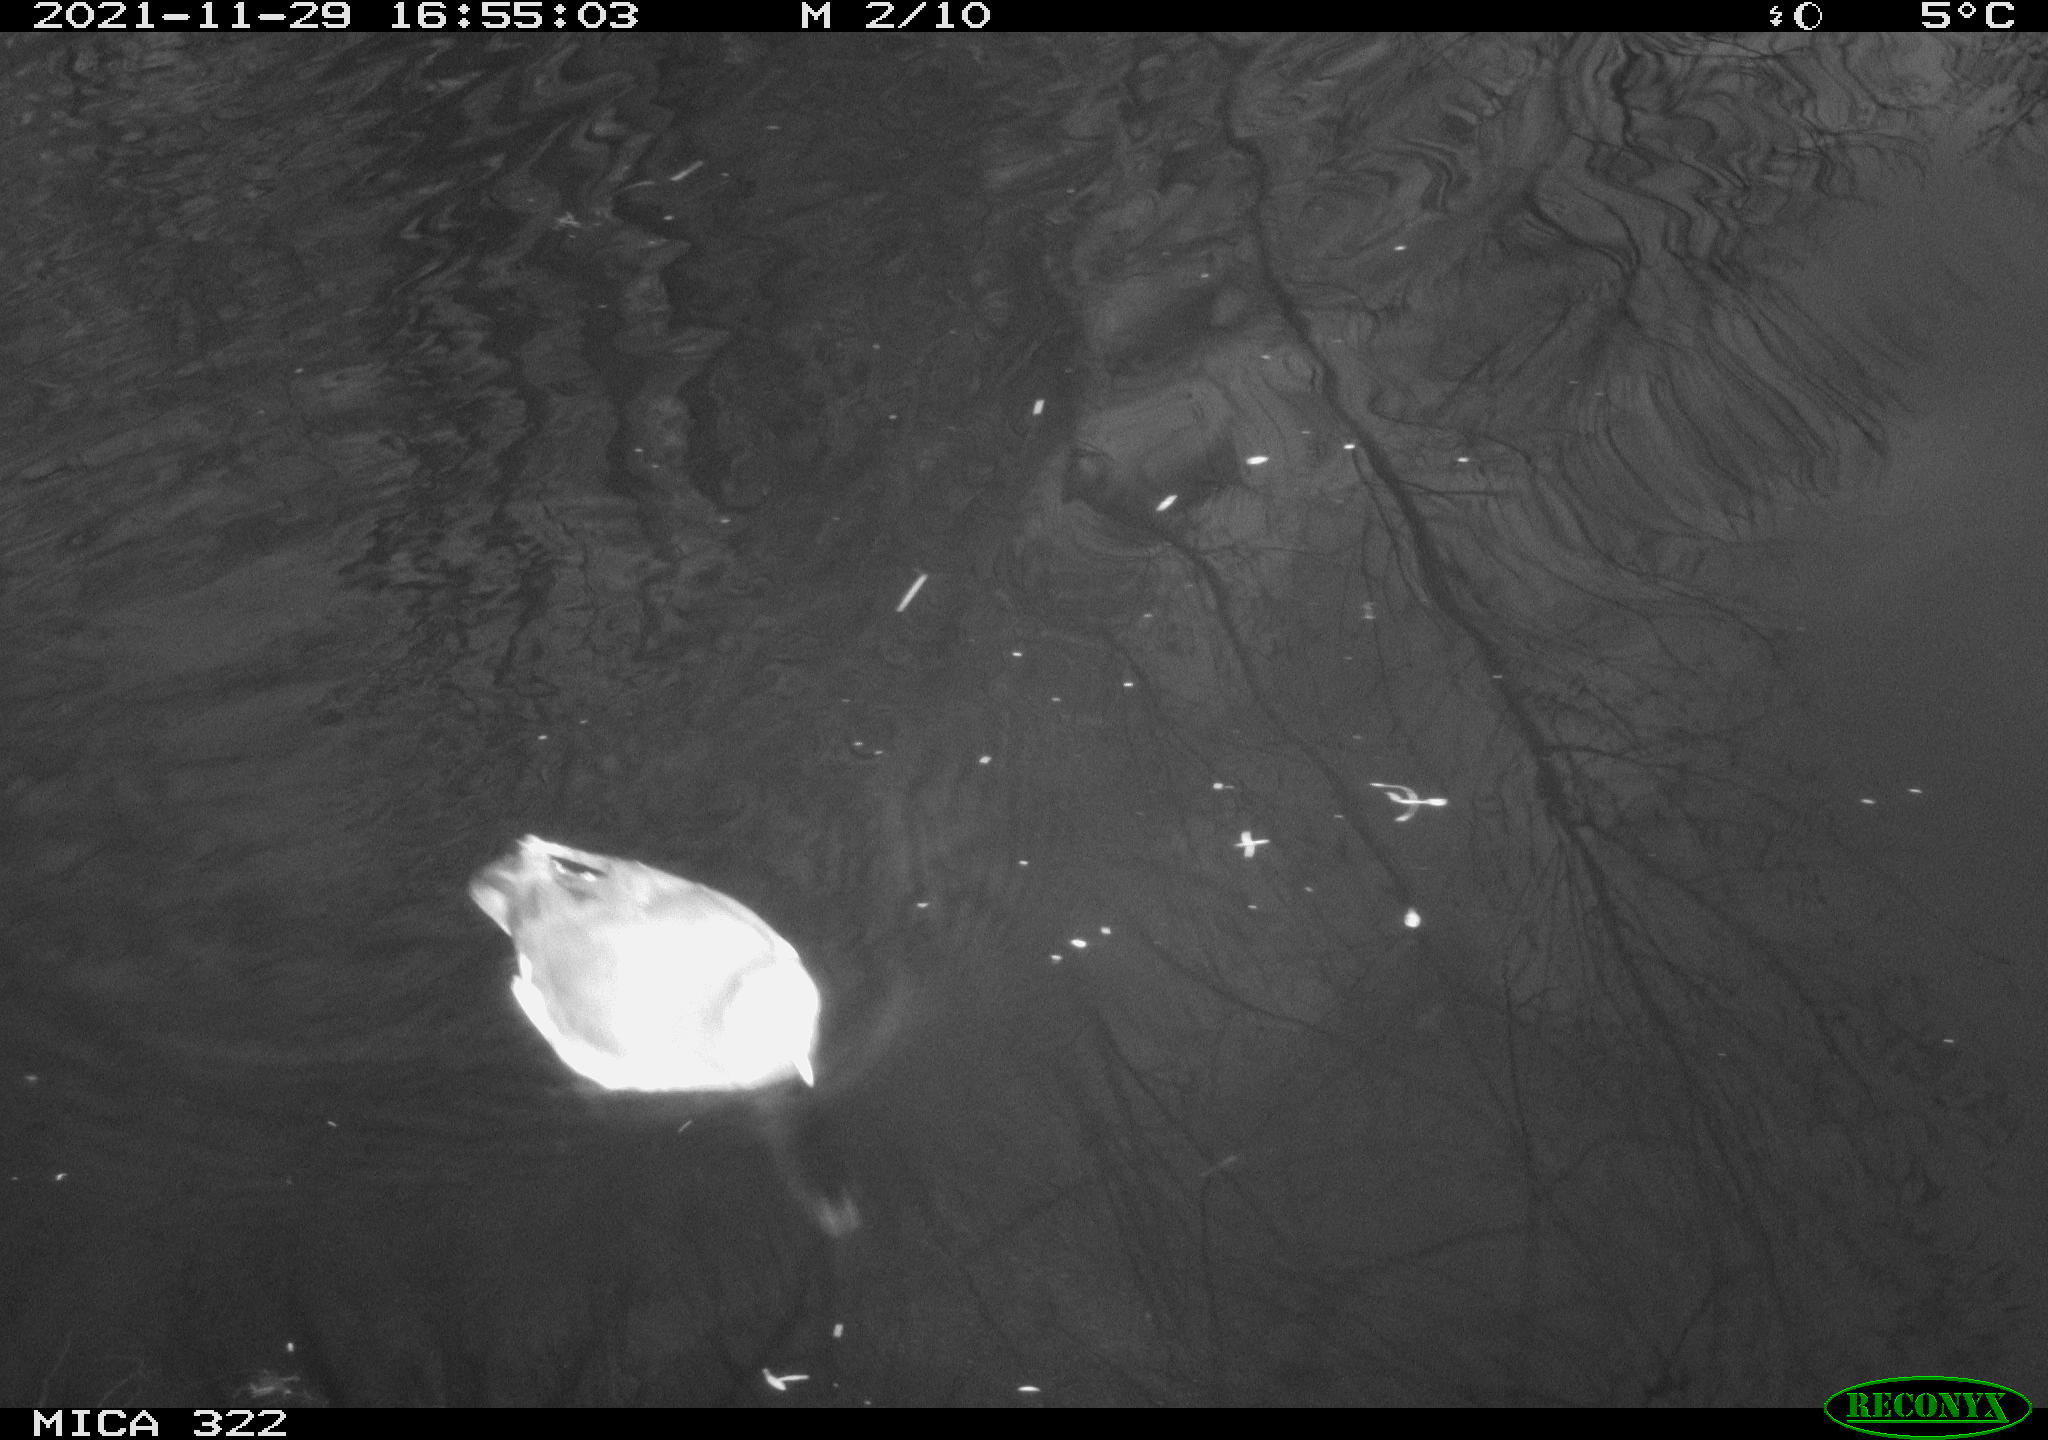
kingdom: Animalia
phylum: Chordata
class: Aves
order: Gruiformes
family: Rallidae
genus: Fulica
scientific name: Fulica atra
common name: Eurasian coot
